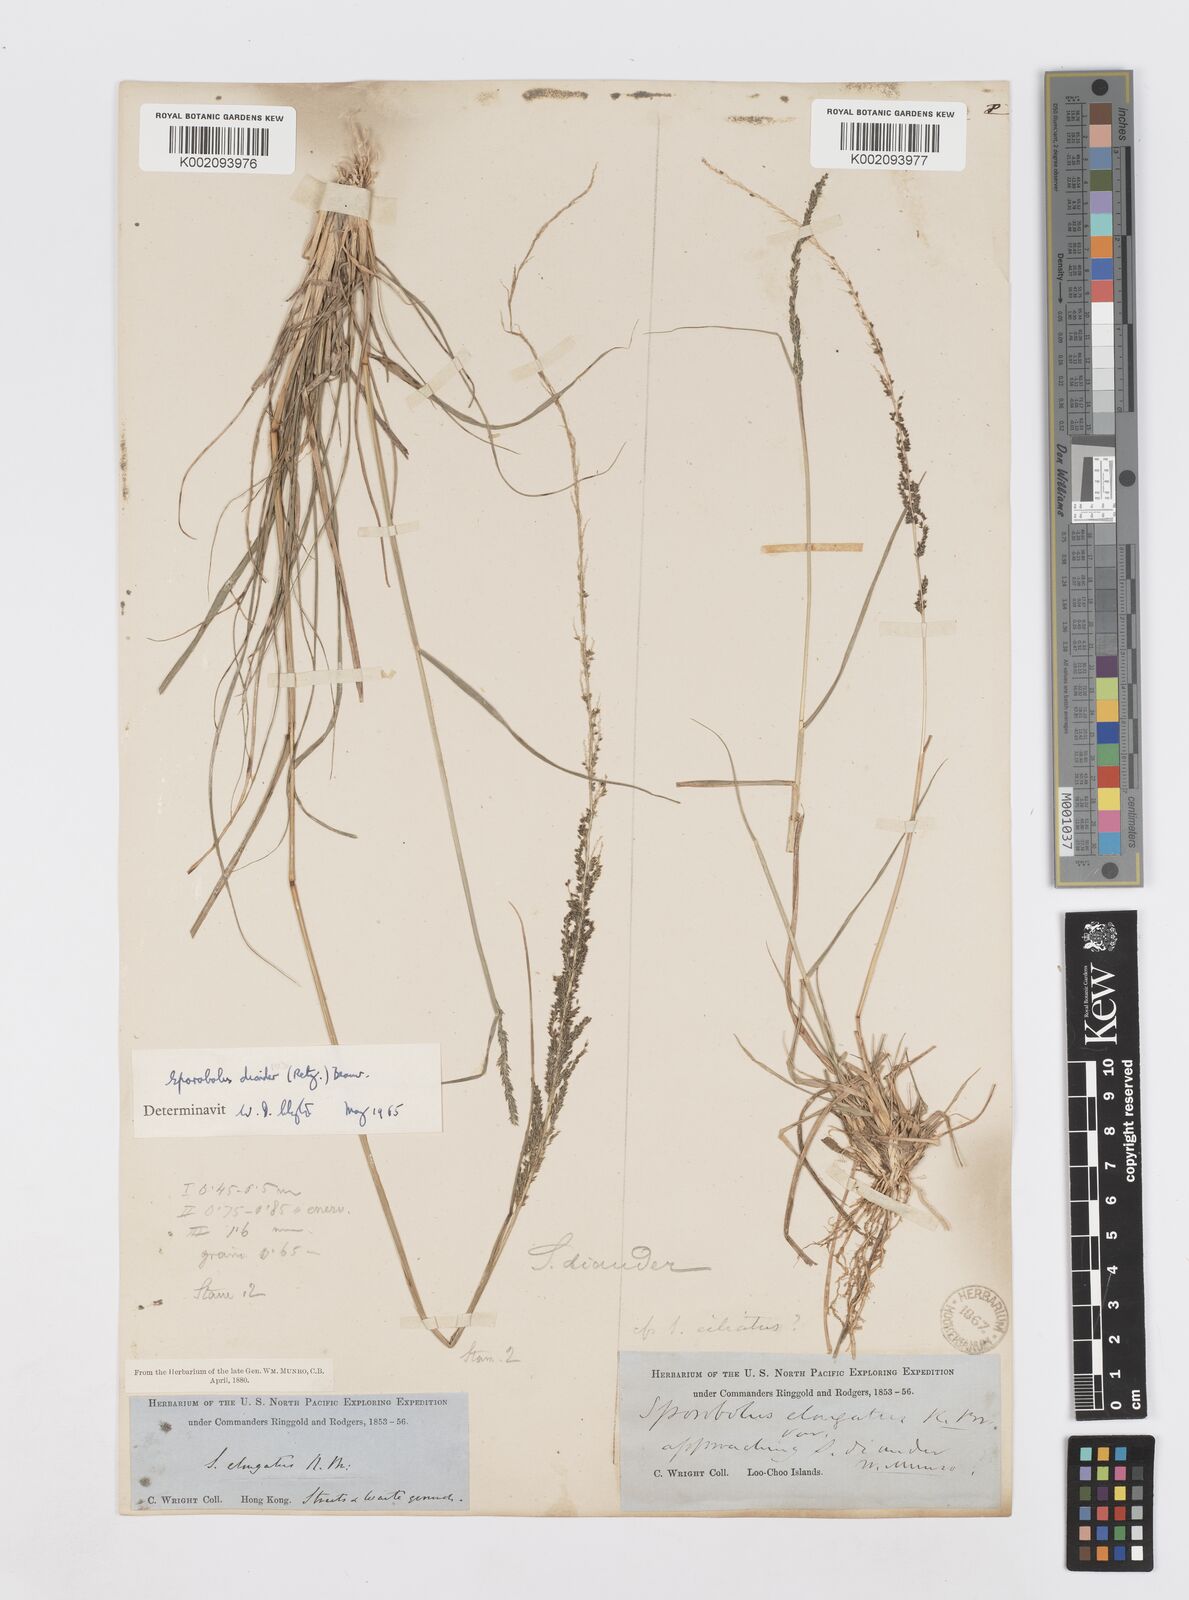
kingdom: Plantae
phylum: Tracheophyta
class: Liliopsida
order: Poales
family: Poaceae
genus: Sporobolus
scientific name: Sporobolus diandrus
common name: Tussock dropseed
